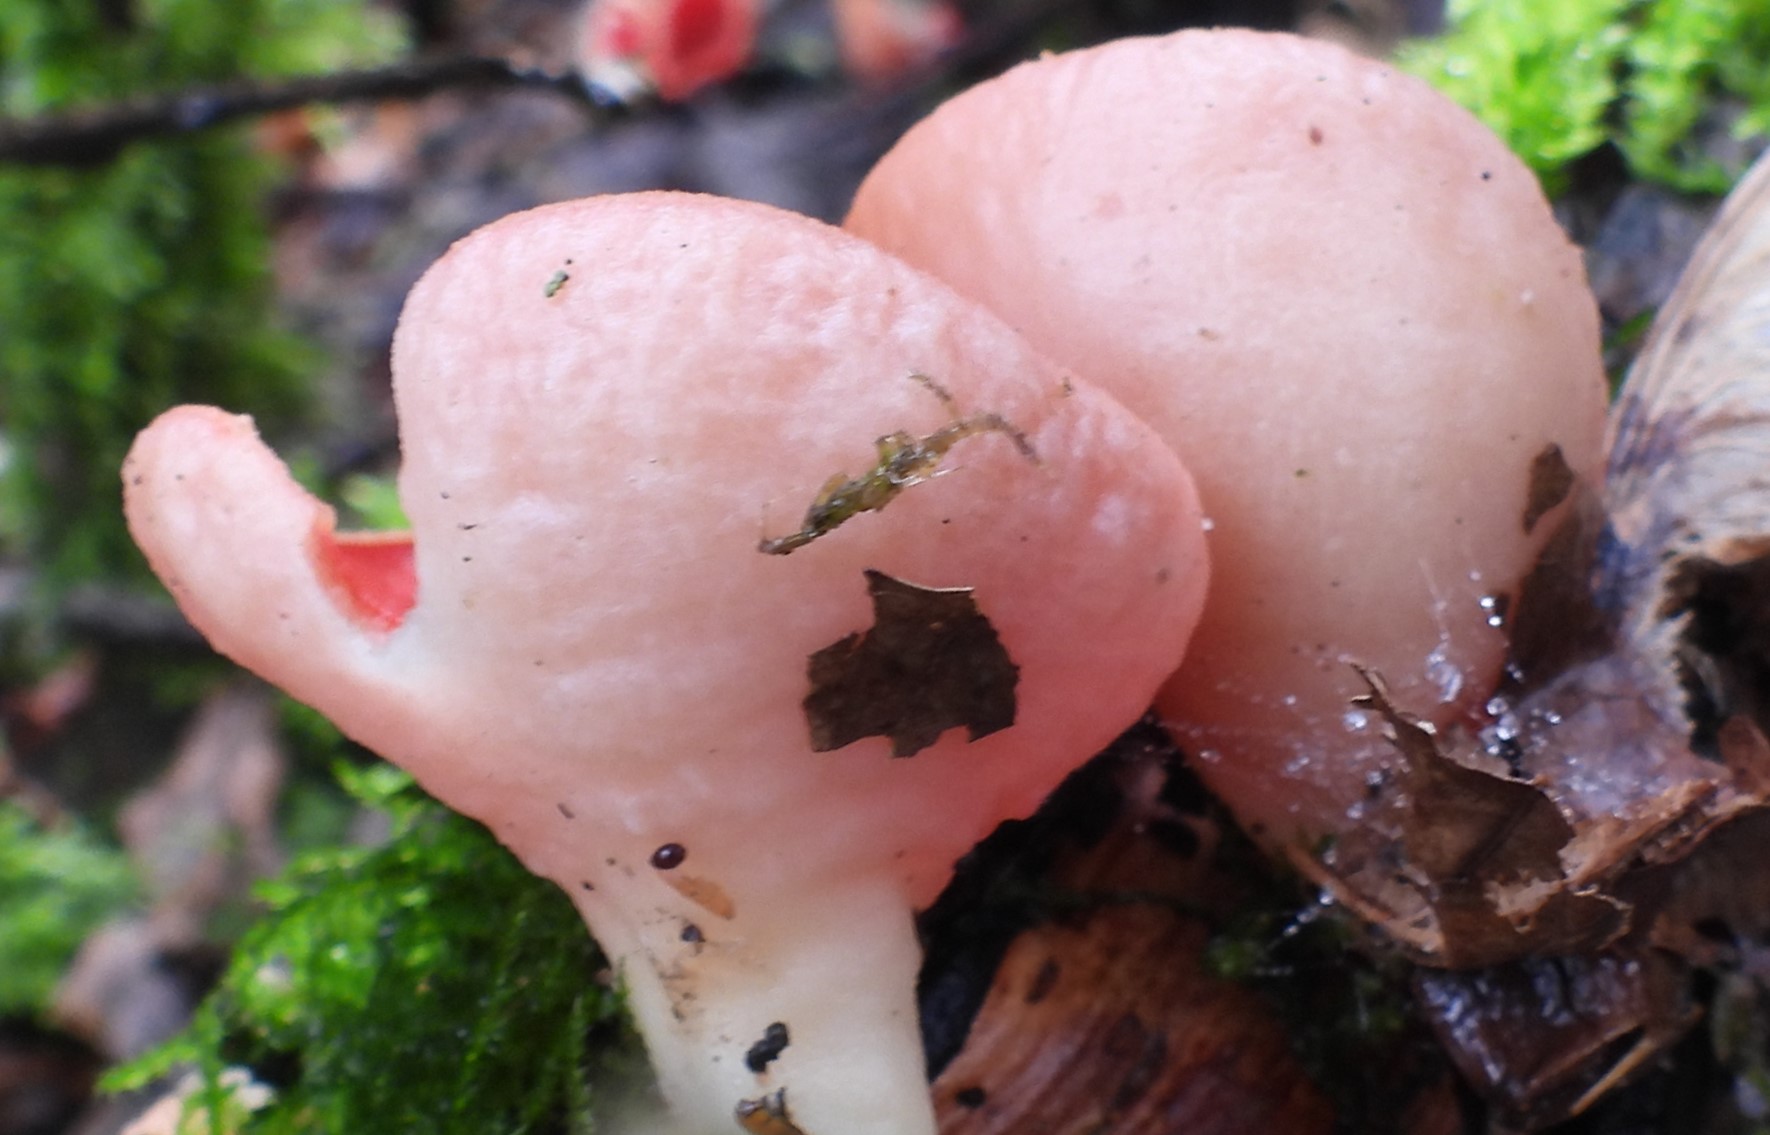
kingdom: Fungi
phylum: Ascomycota
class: Pezizomycetes
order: Pezizales
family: Sarcoscyphaceae
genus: Sarcoscypha
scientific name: Sarcoscypha austriaca
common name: krølhåret pragtbæger
